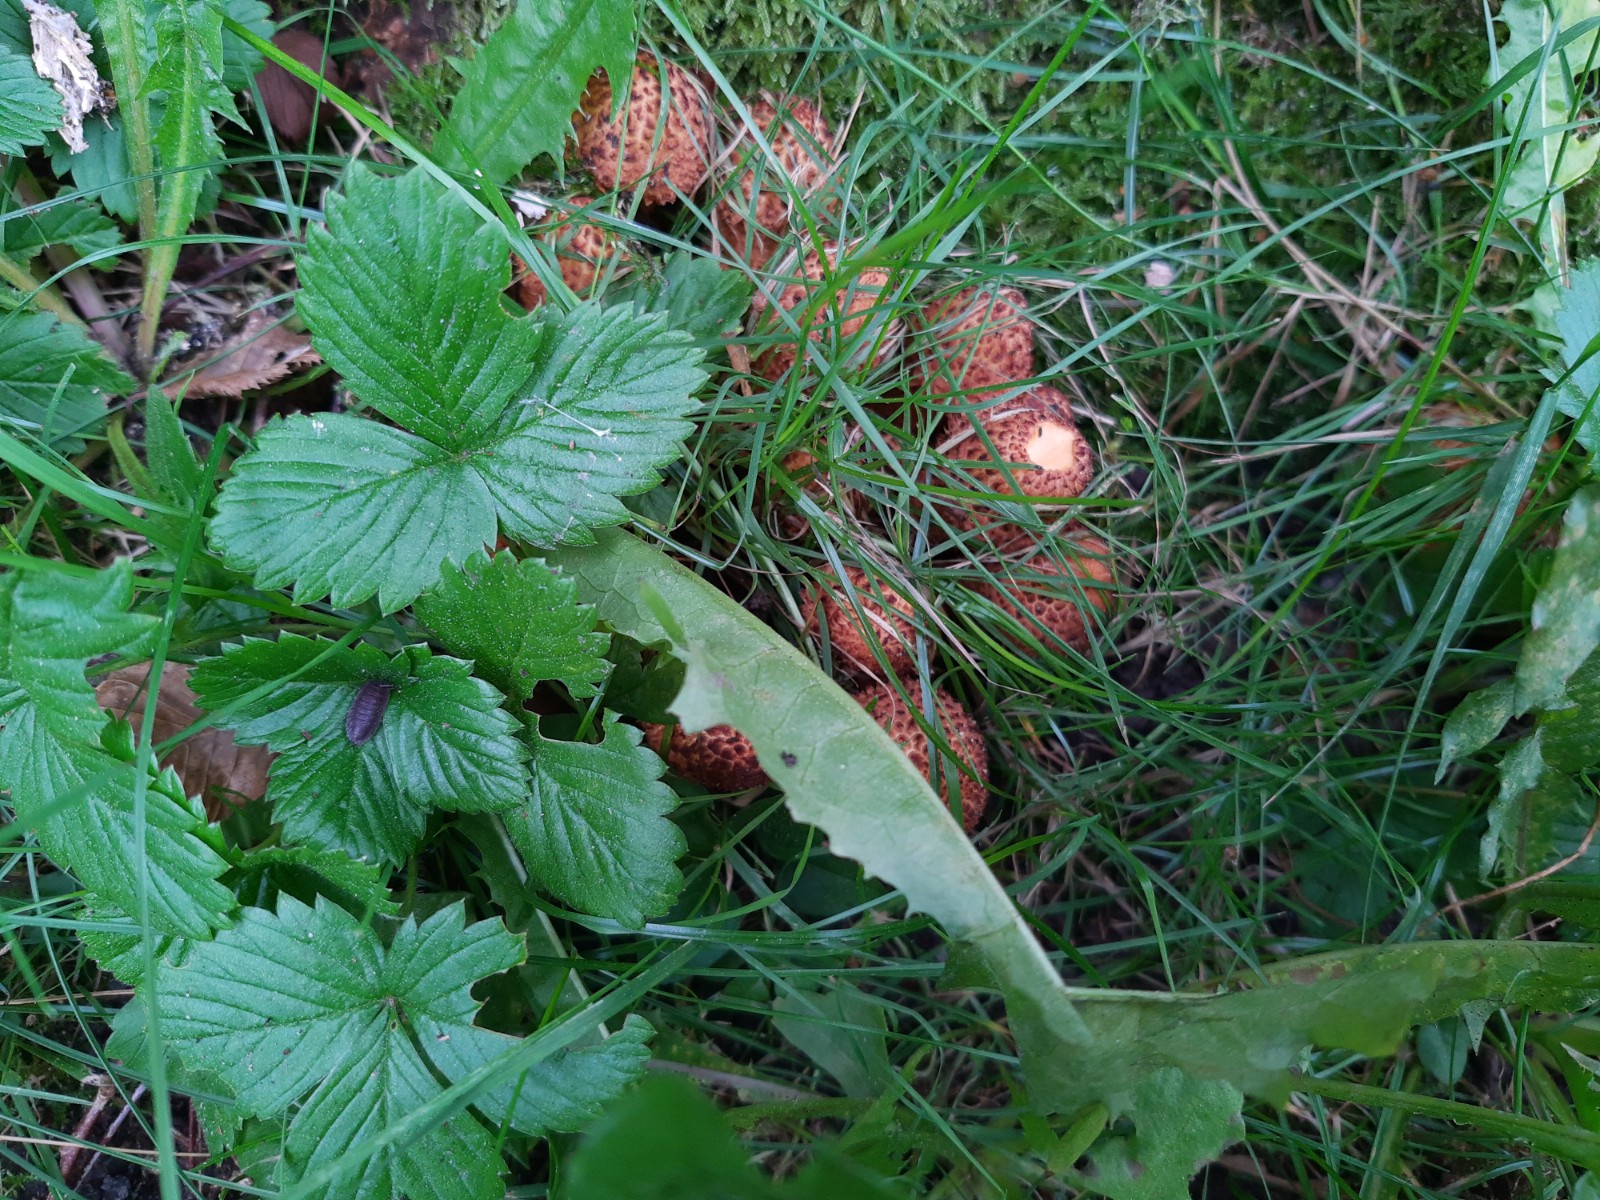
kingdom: Fungi
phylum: Basidiomycota
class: Agaricomycetes
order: Agaricales
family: Strophariaceae
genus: Pholiota
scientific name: Pholiota squarrosa
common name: krumskællet skælhat
